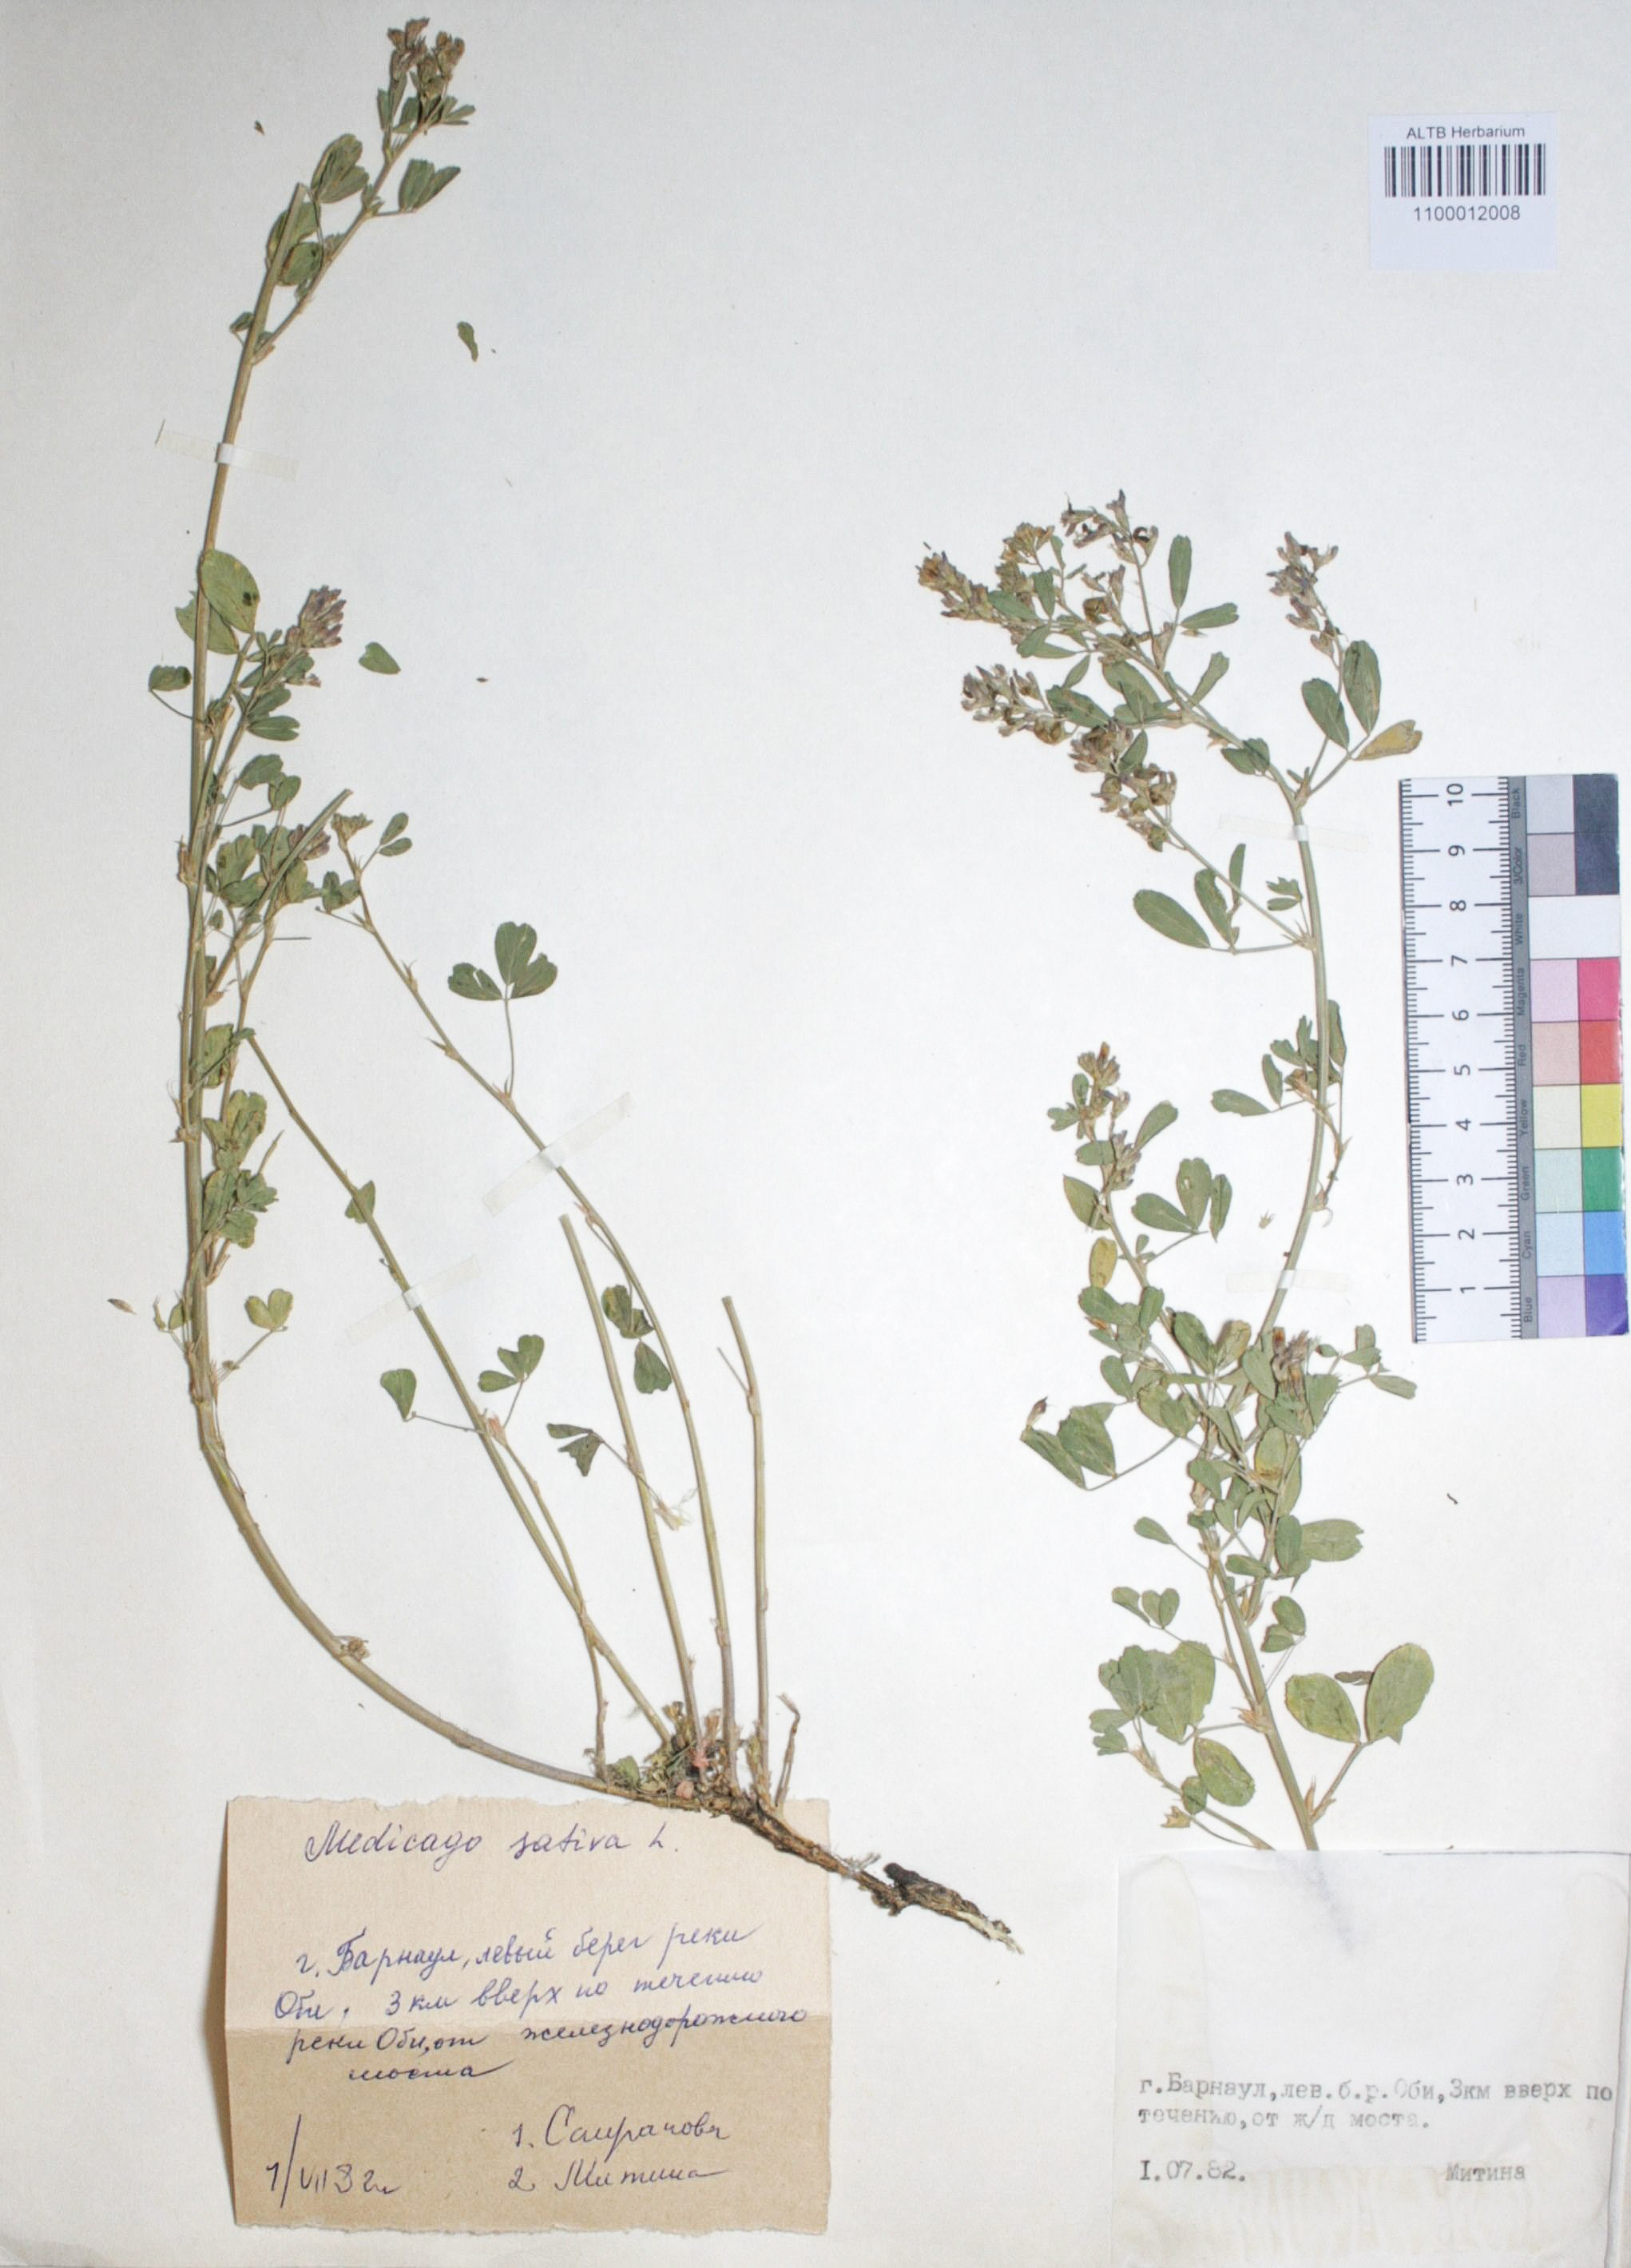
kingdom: Plantae
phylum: Tracheophyta
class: Magnoliopsida
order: Fabales
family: Fabaceae
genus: Medicago
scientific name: Medicago sativa
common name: Alfalfa
